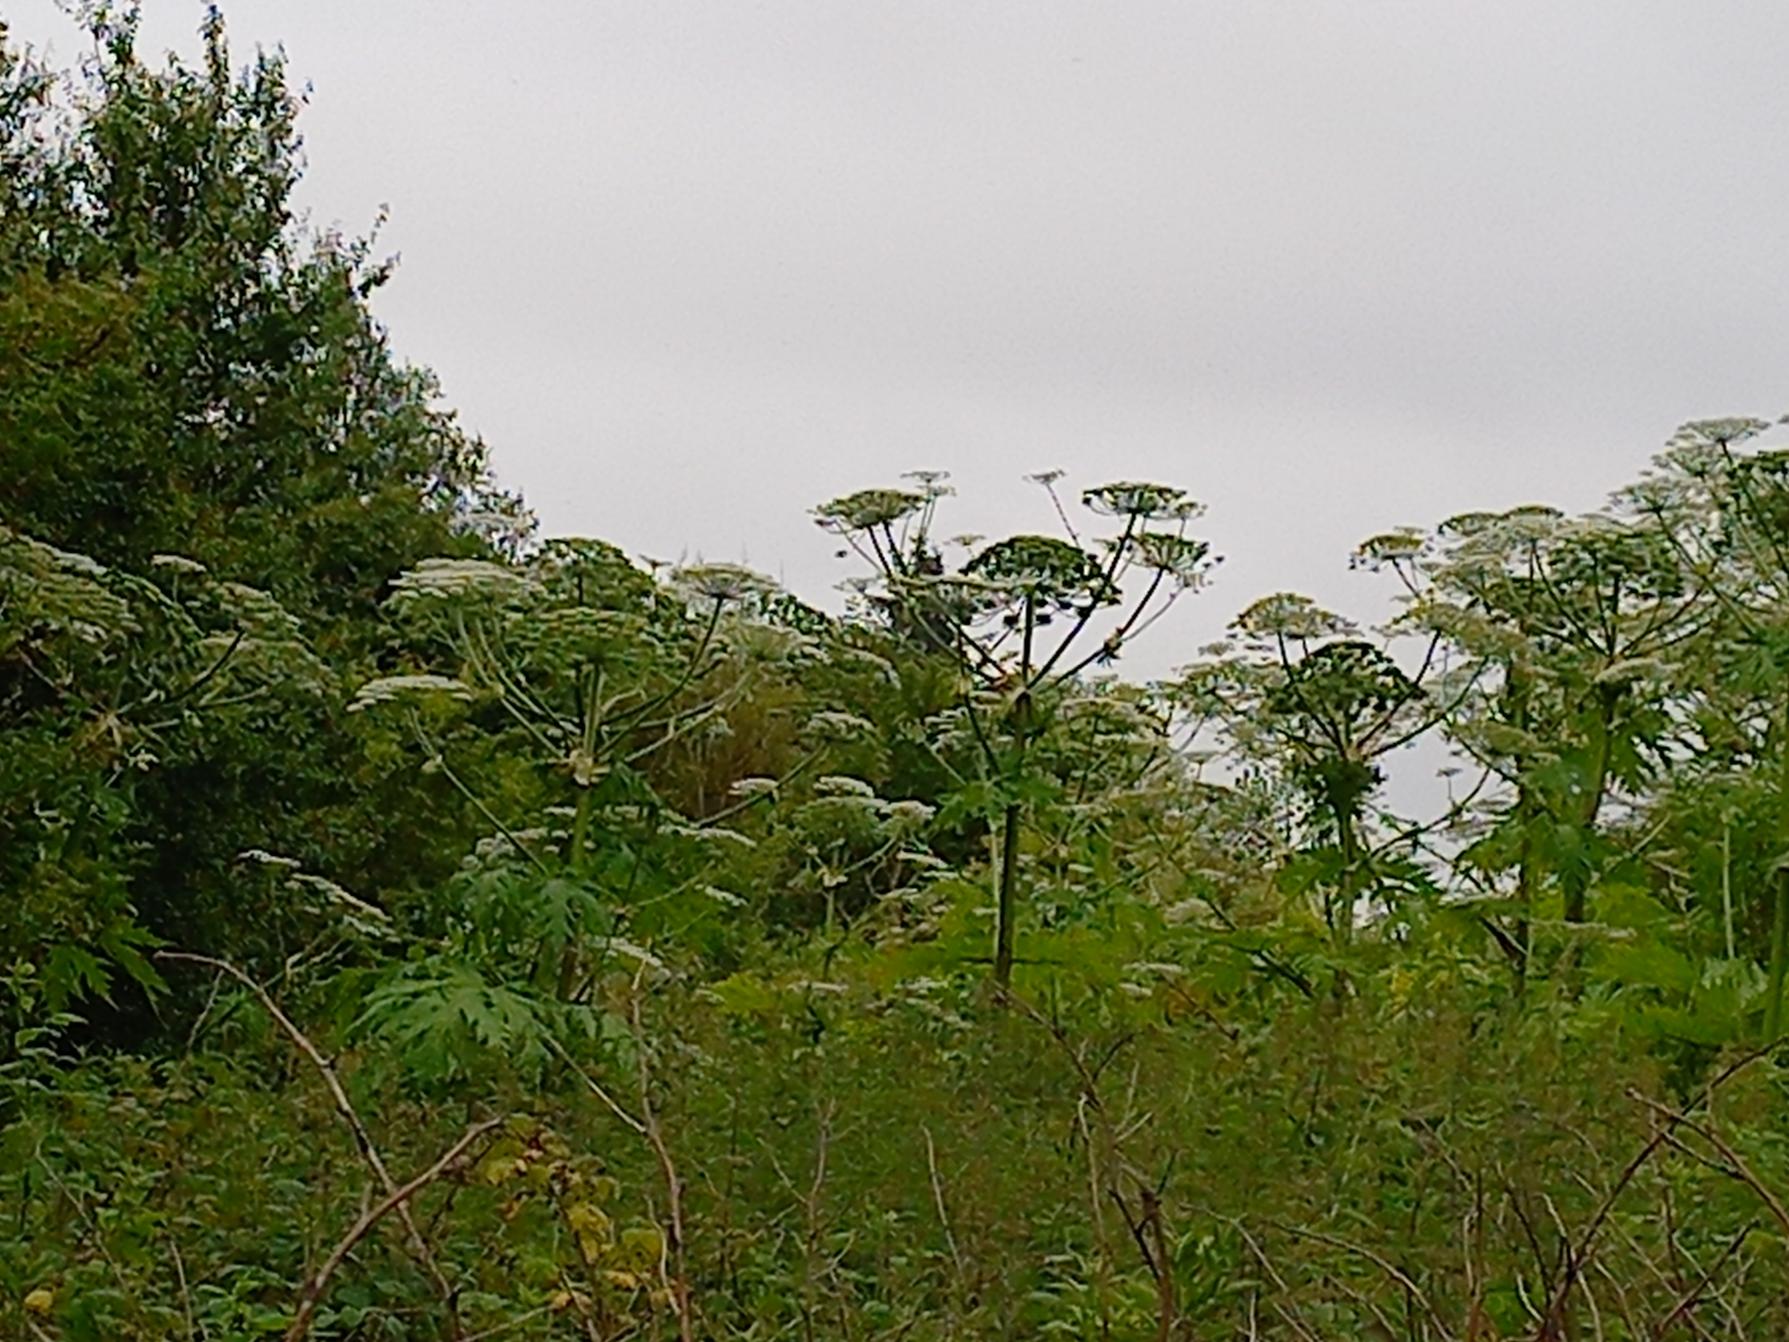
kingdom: Plantae
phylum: Tracheophyta
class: Magnoliopsida
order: Apiales
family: Apiaceae
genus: Heracleum
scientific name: Heracleum mantegazzianum
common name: Kæmpe-bjørneklo
